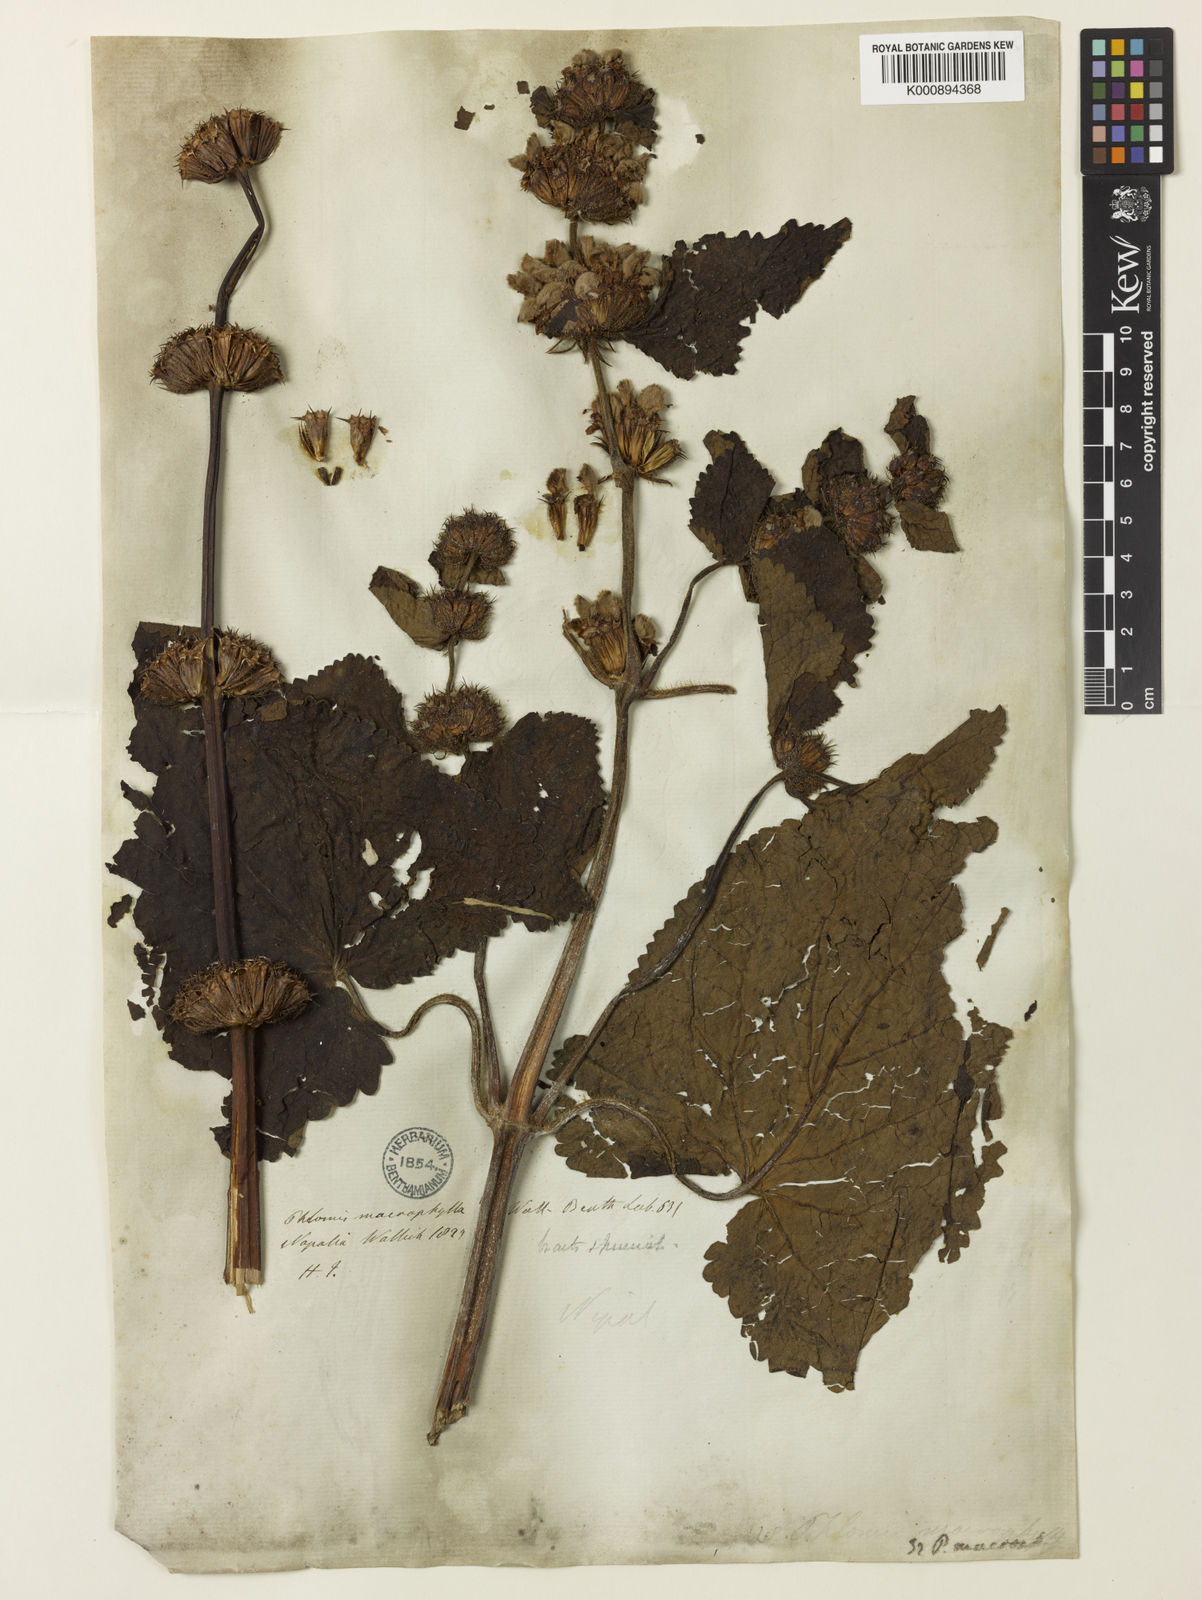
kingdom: Plantae
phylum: Tracheophyta
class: Magnoliopsida
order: Lamiales
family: Lamiaceae
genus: Phlomis
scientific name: Phlomis
